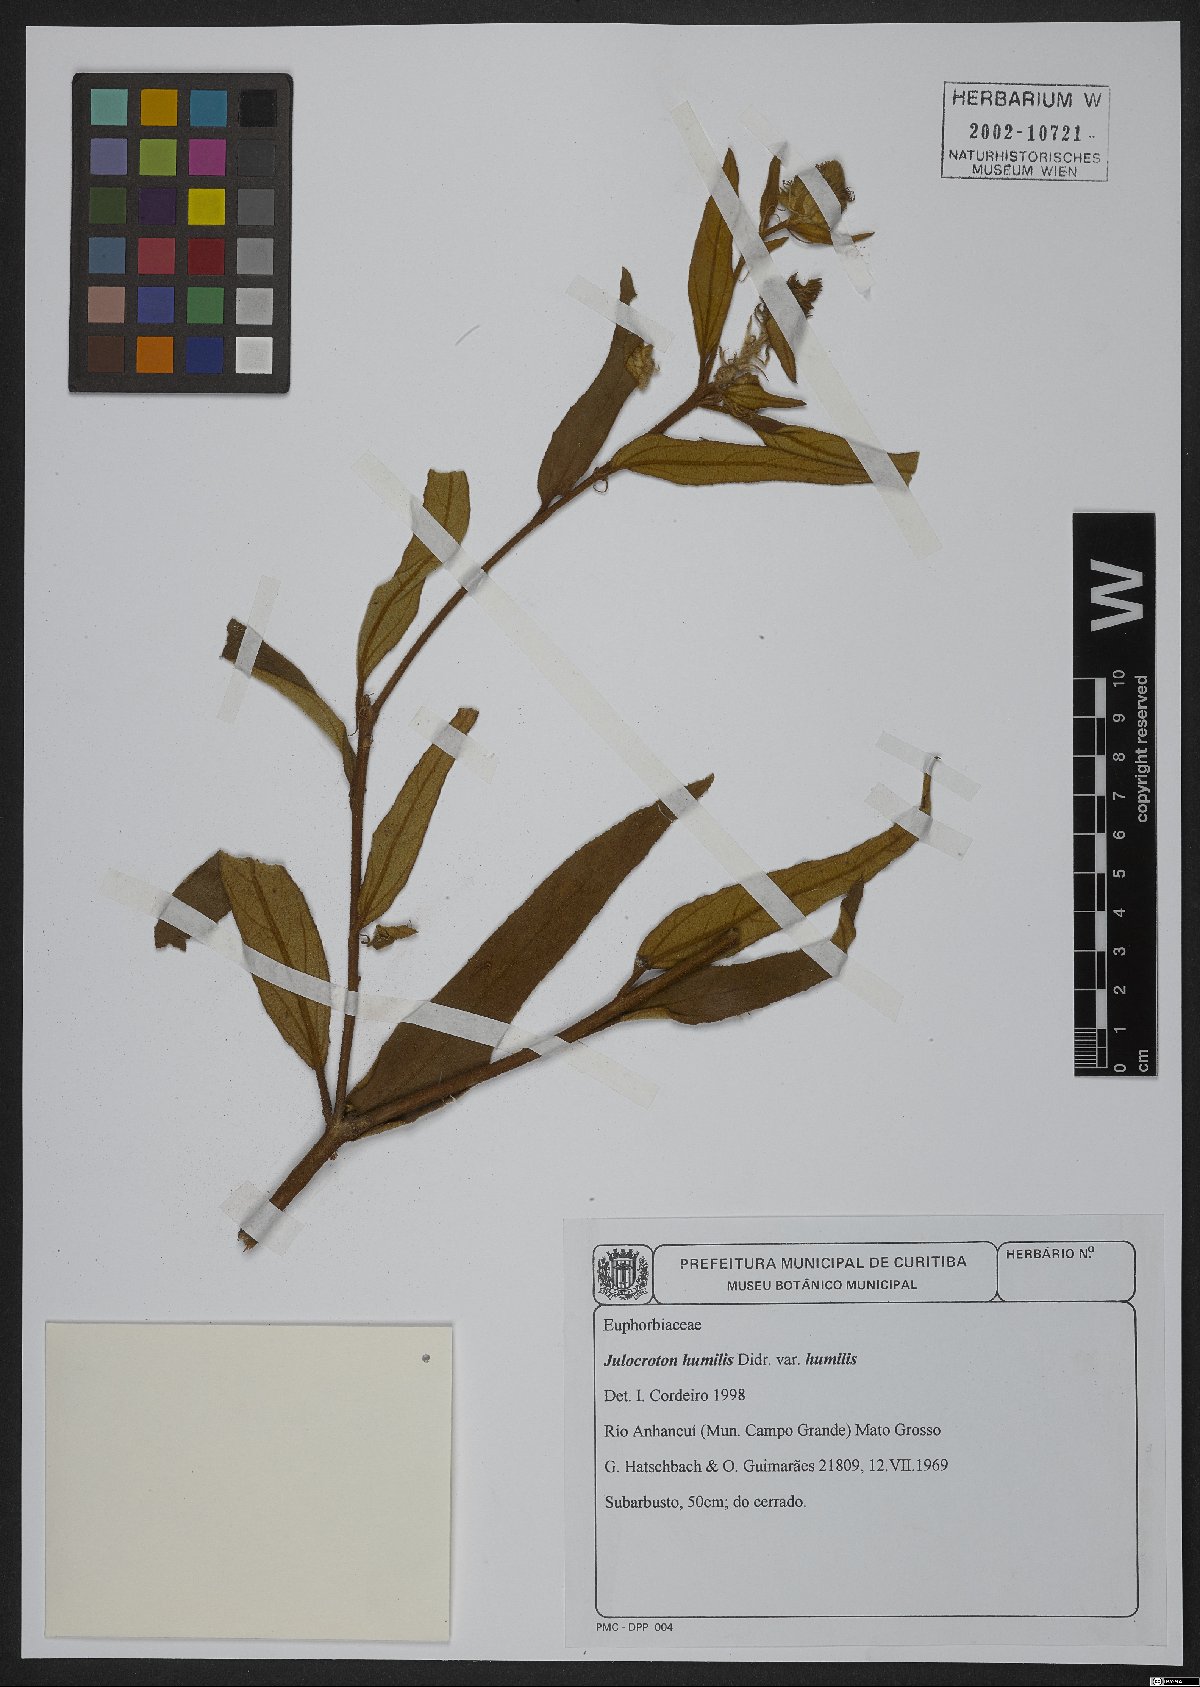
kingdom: Plantae
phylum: Tracheophyta
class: Magnoliopsida
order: Malpighiales
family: Euphorbiaceae
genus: Croton
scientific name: Croton solanaceus
